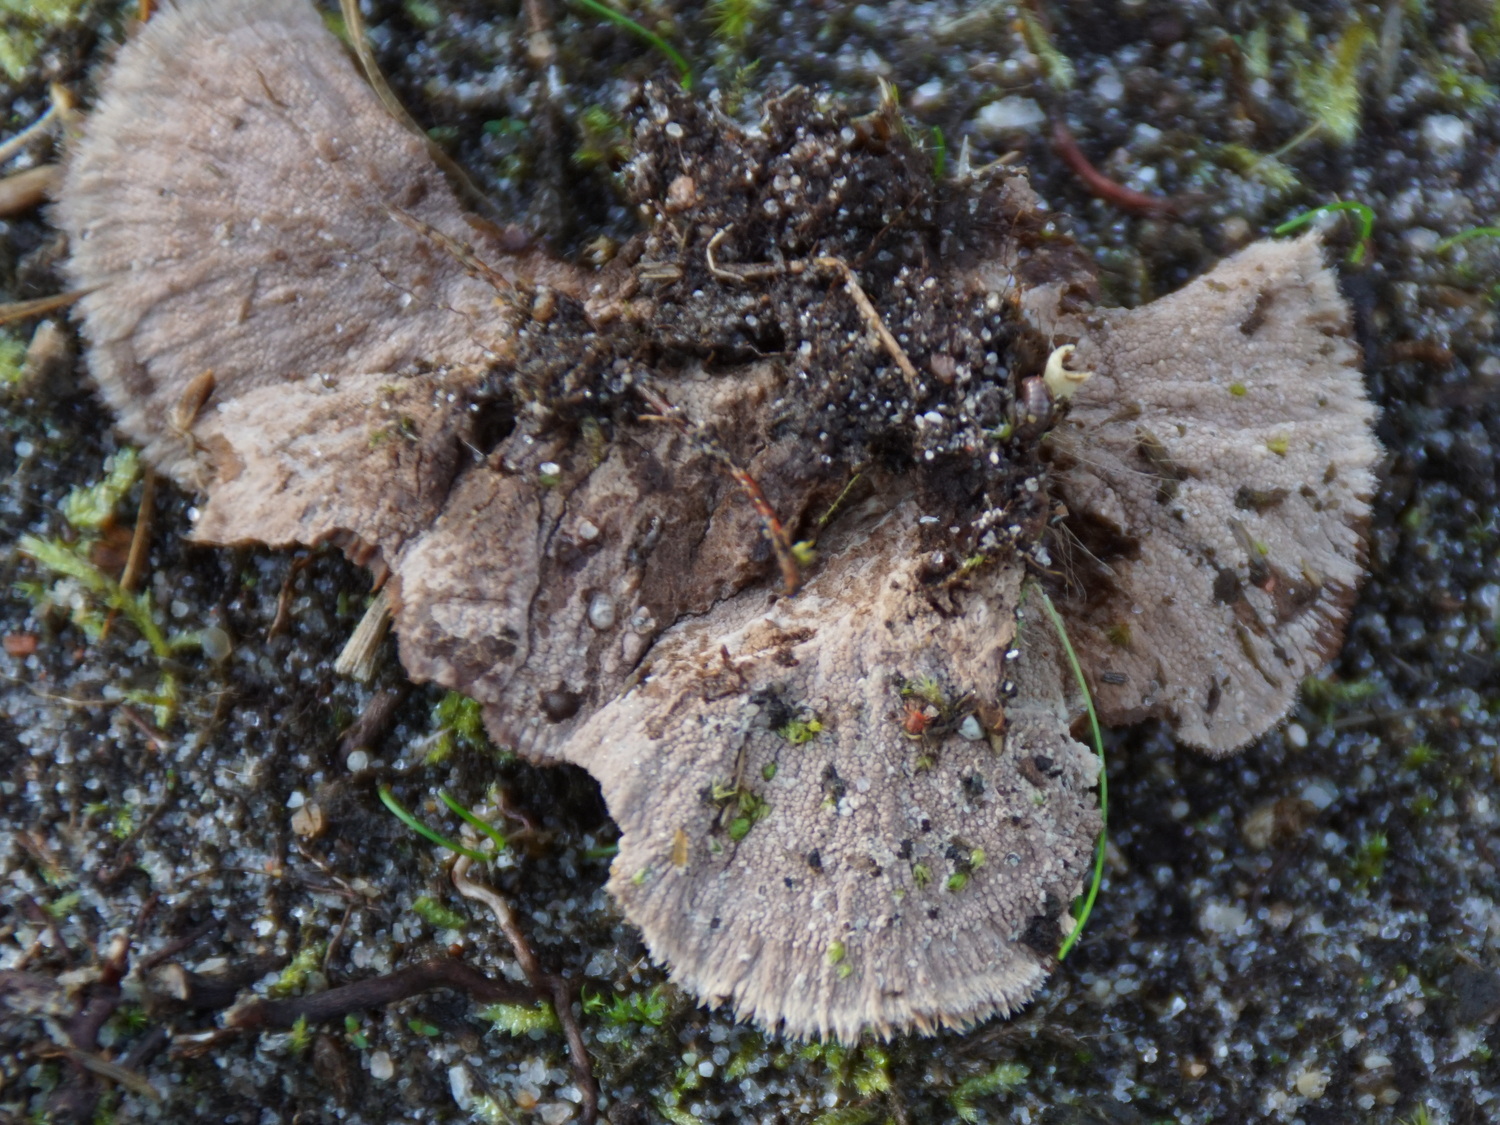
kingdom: Fungi
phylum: Basidiomycota
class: Agaricomycetes
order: Thelephorales
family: Thelephoraceae
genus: Thelephora
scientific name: Thelephora terrestris
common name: fliget frynsesvamp
